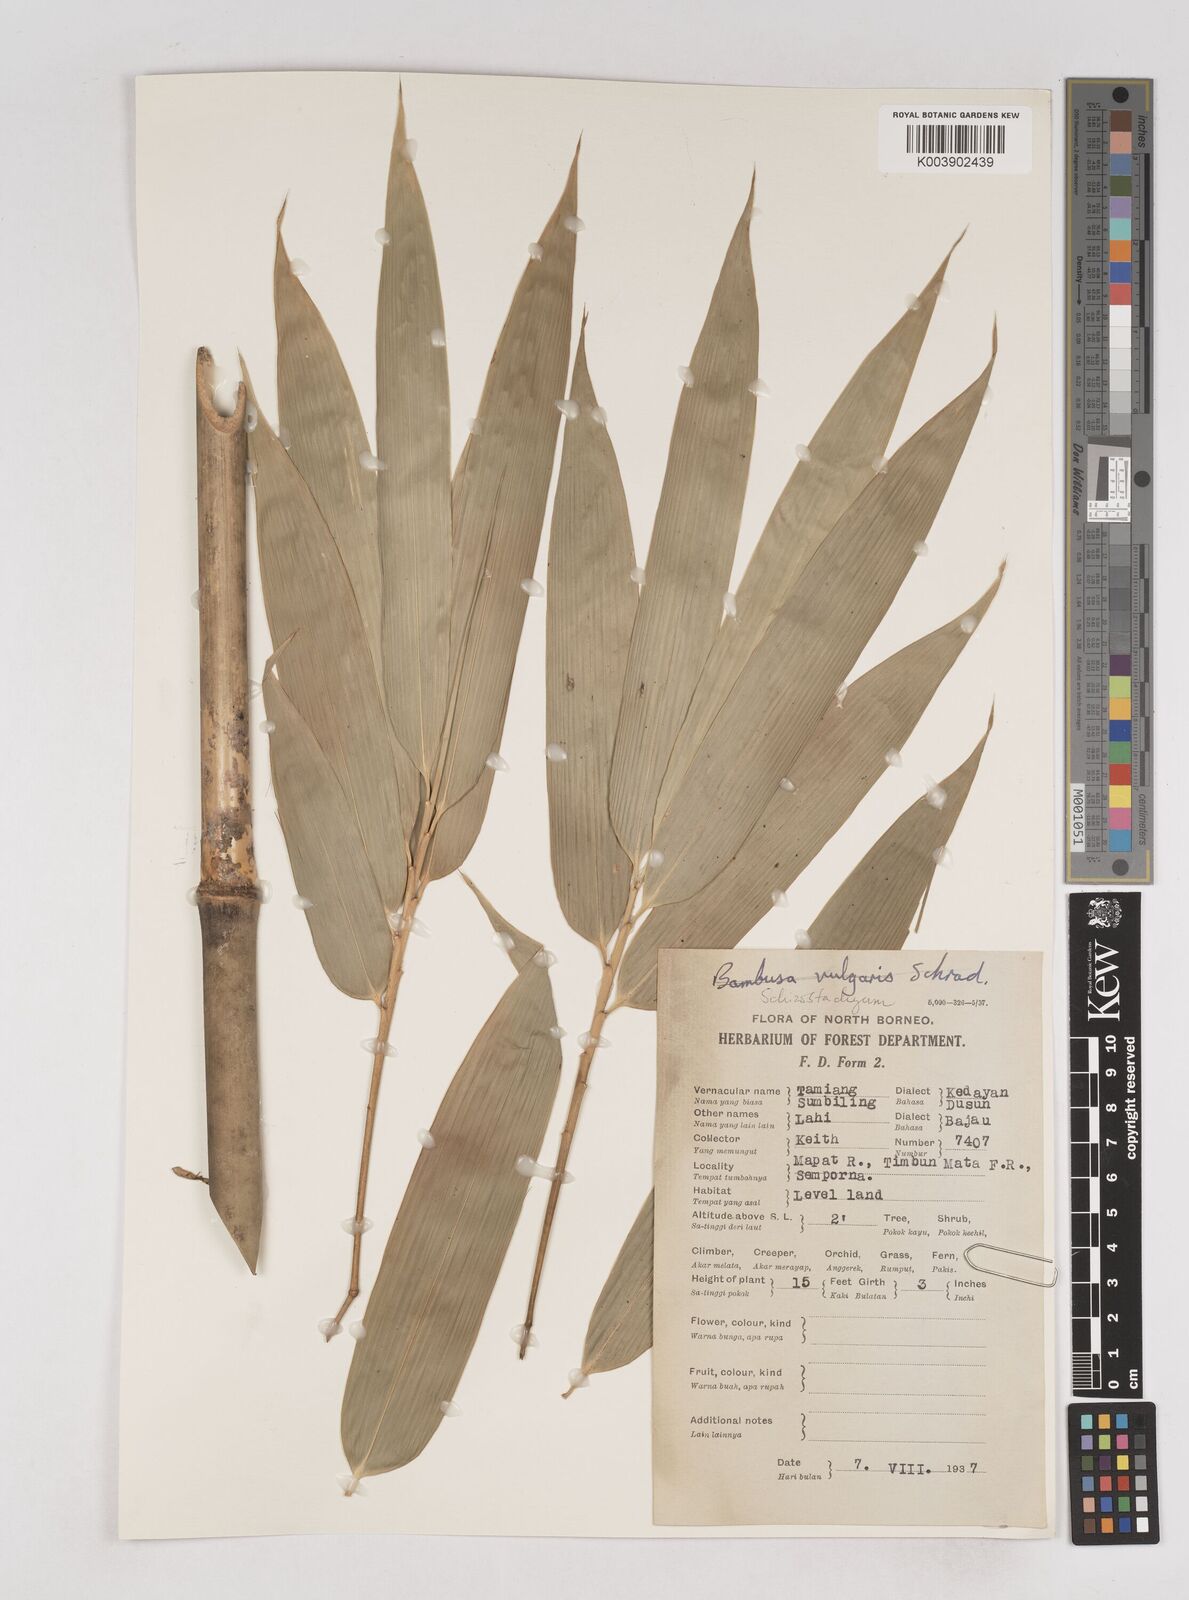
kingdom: Plantae
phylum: Tracheophyta
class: Liliopsida
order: Poales
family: Poaceae
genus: Schizostachyum
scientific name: Schizostachyum
